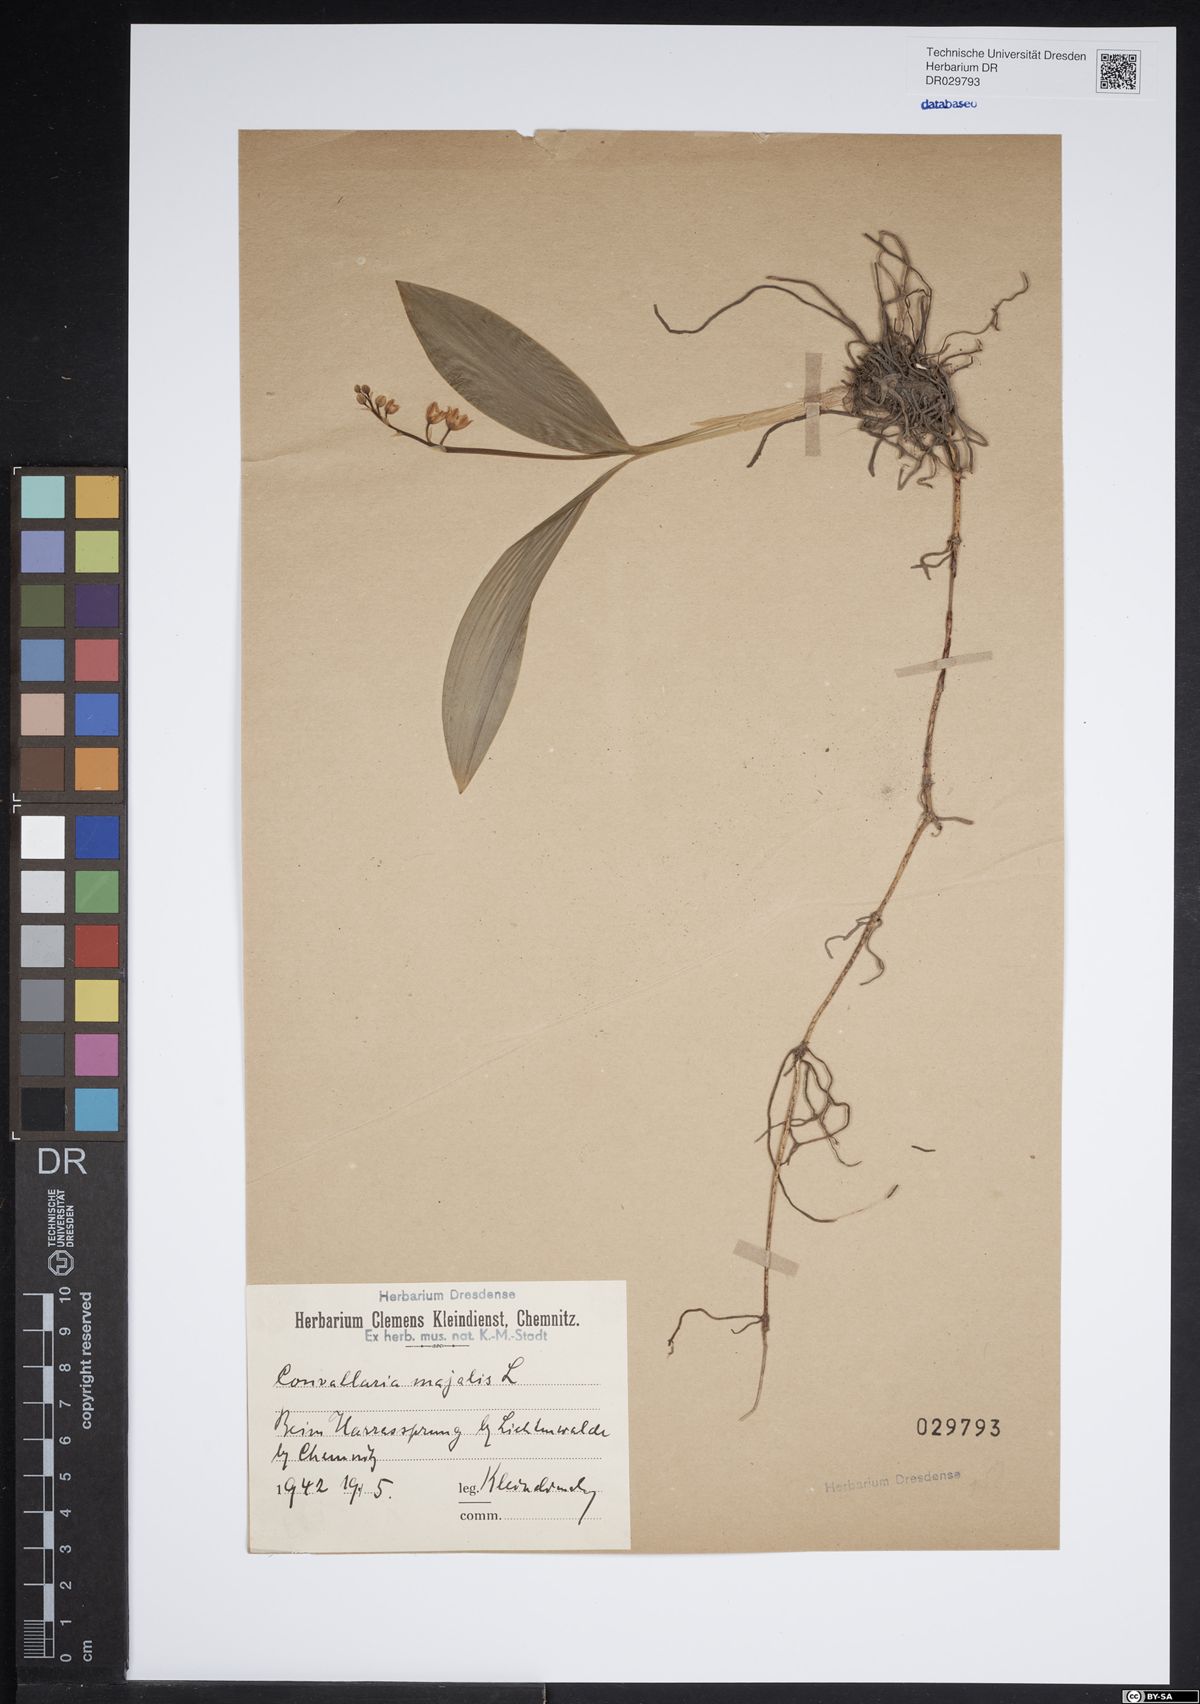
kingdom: Plantae
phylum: Tracheophyta
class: Liliopsida
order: Asparagales
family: Asparagaceae
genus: Convallaria
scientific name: Convallaria majalis
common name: Lily-of-the-valley
